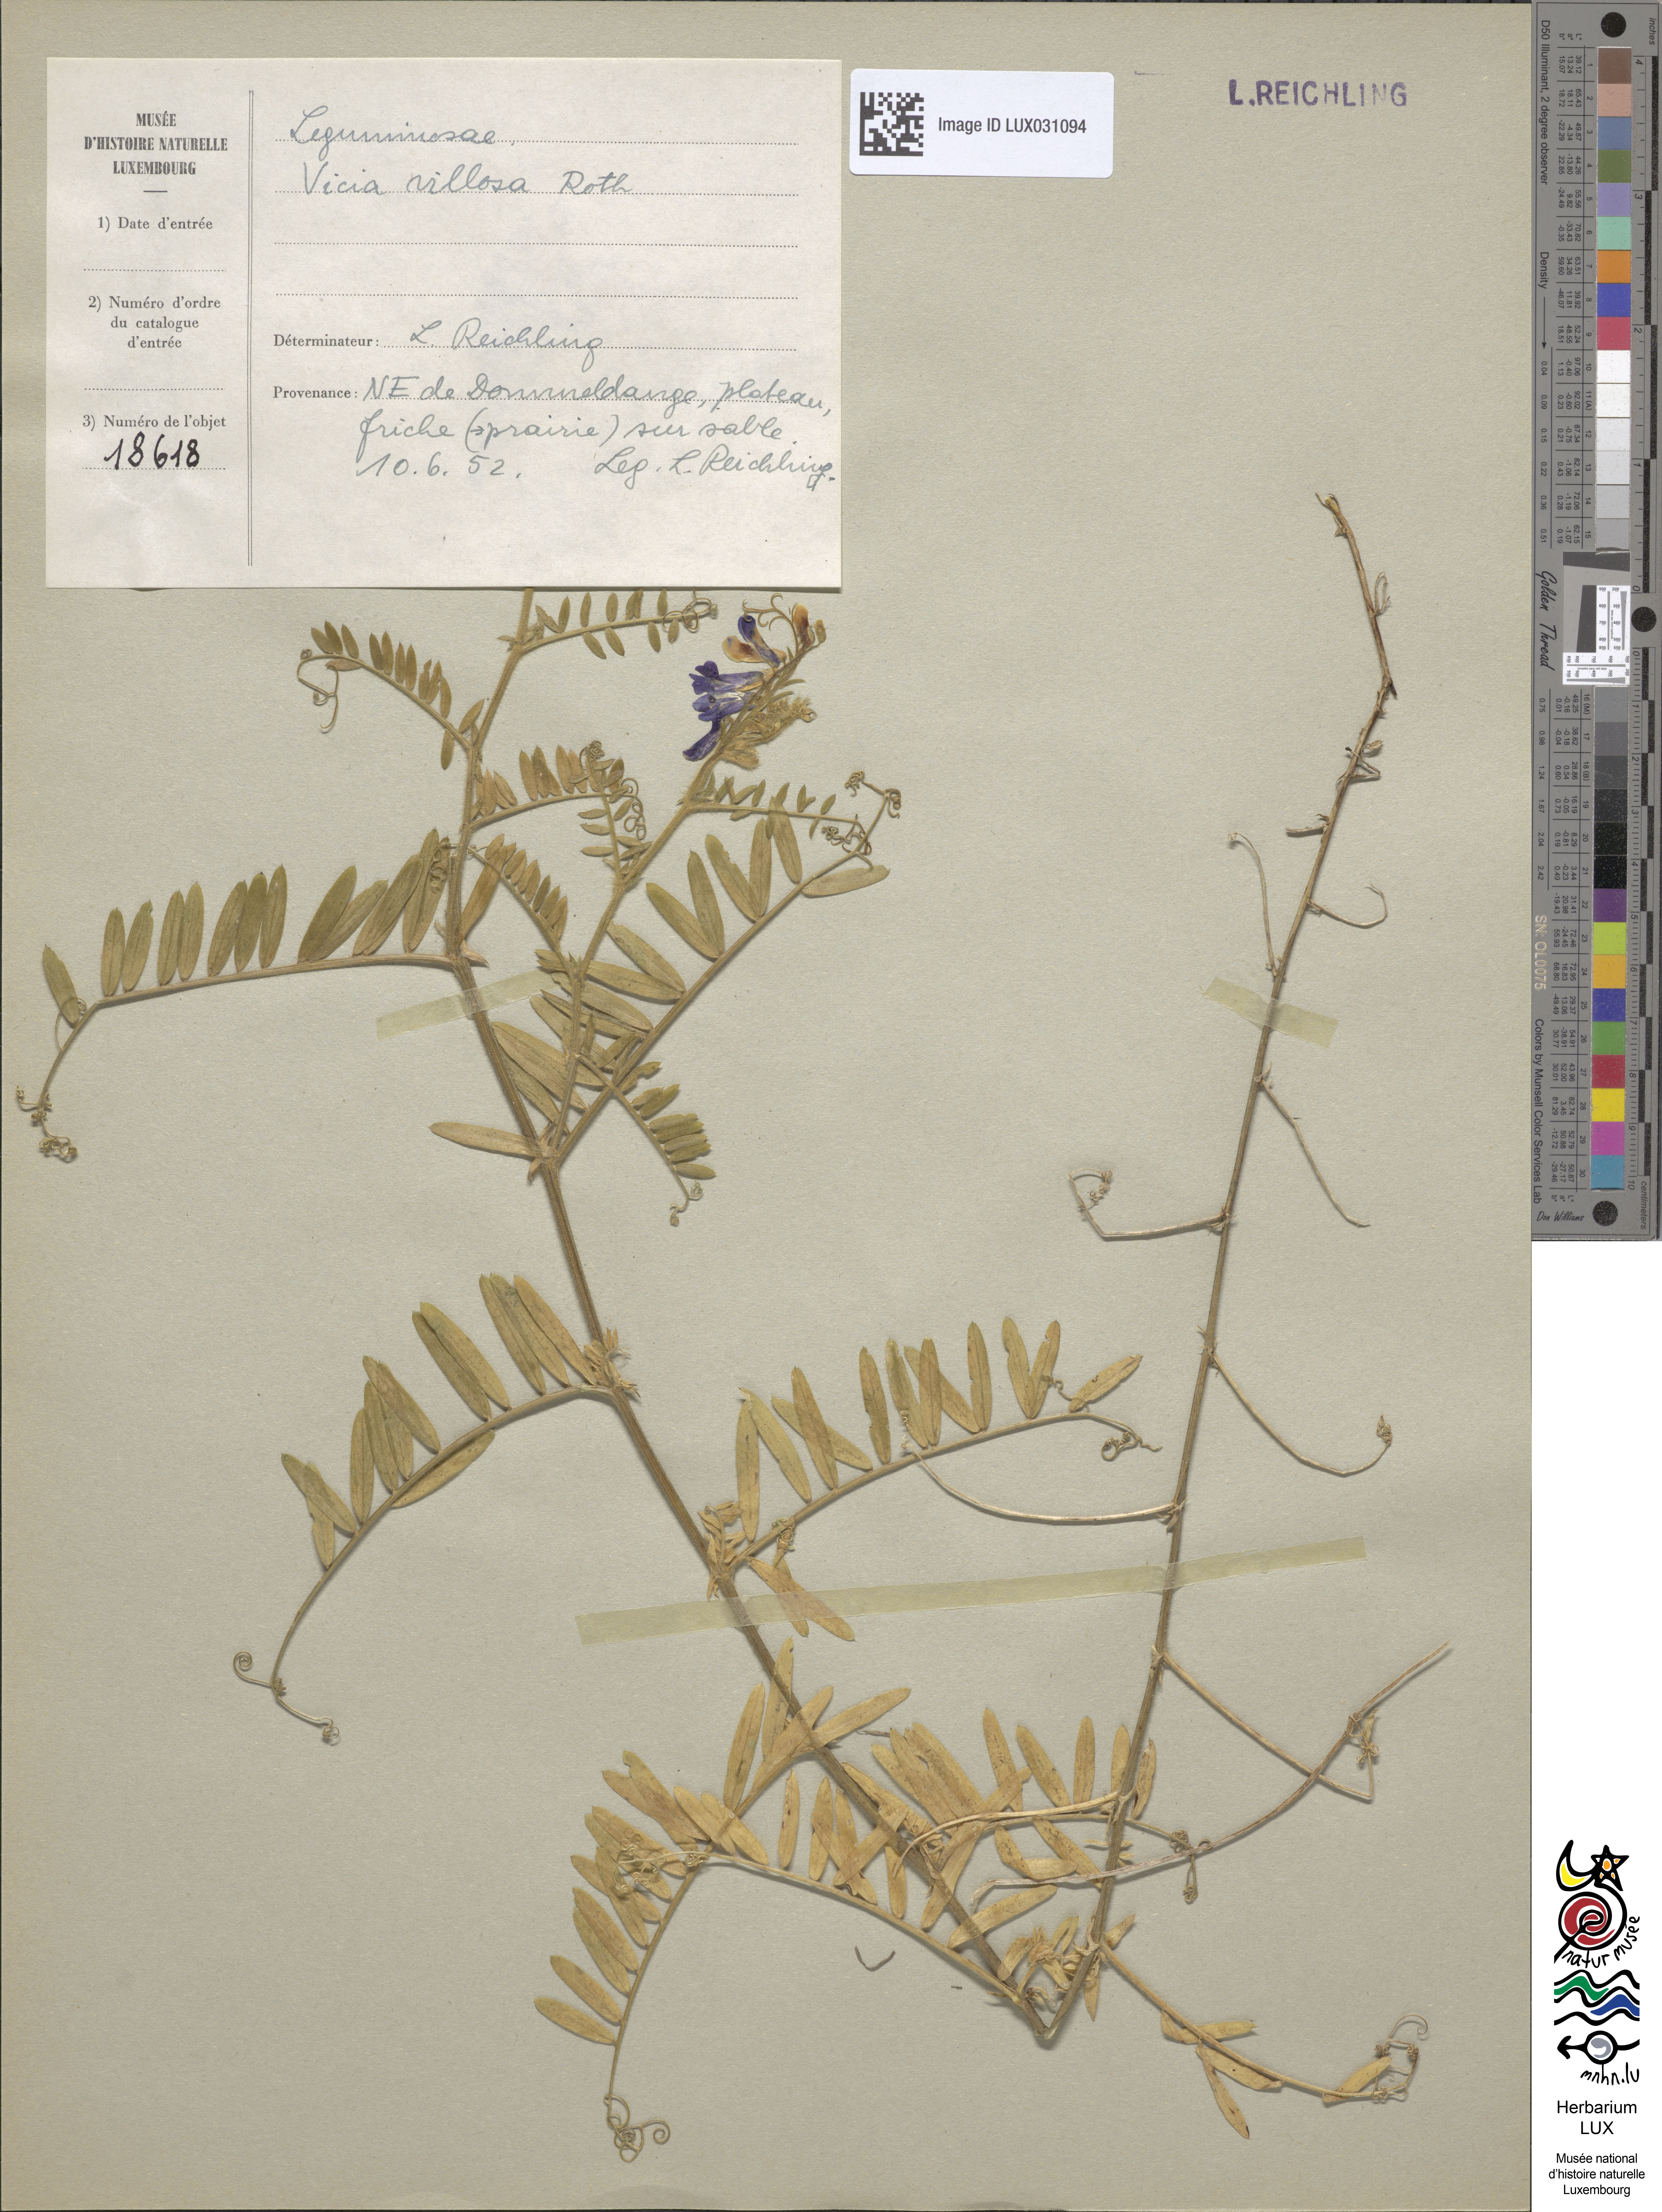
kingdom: Plantae
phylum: Tracheophyta
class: Magnoliopsida
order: Fabales
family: Fabaceae
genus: Vicia
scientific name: Vicia villosa
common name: Fodder vetch
